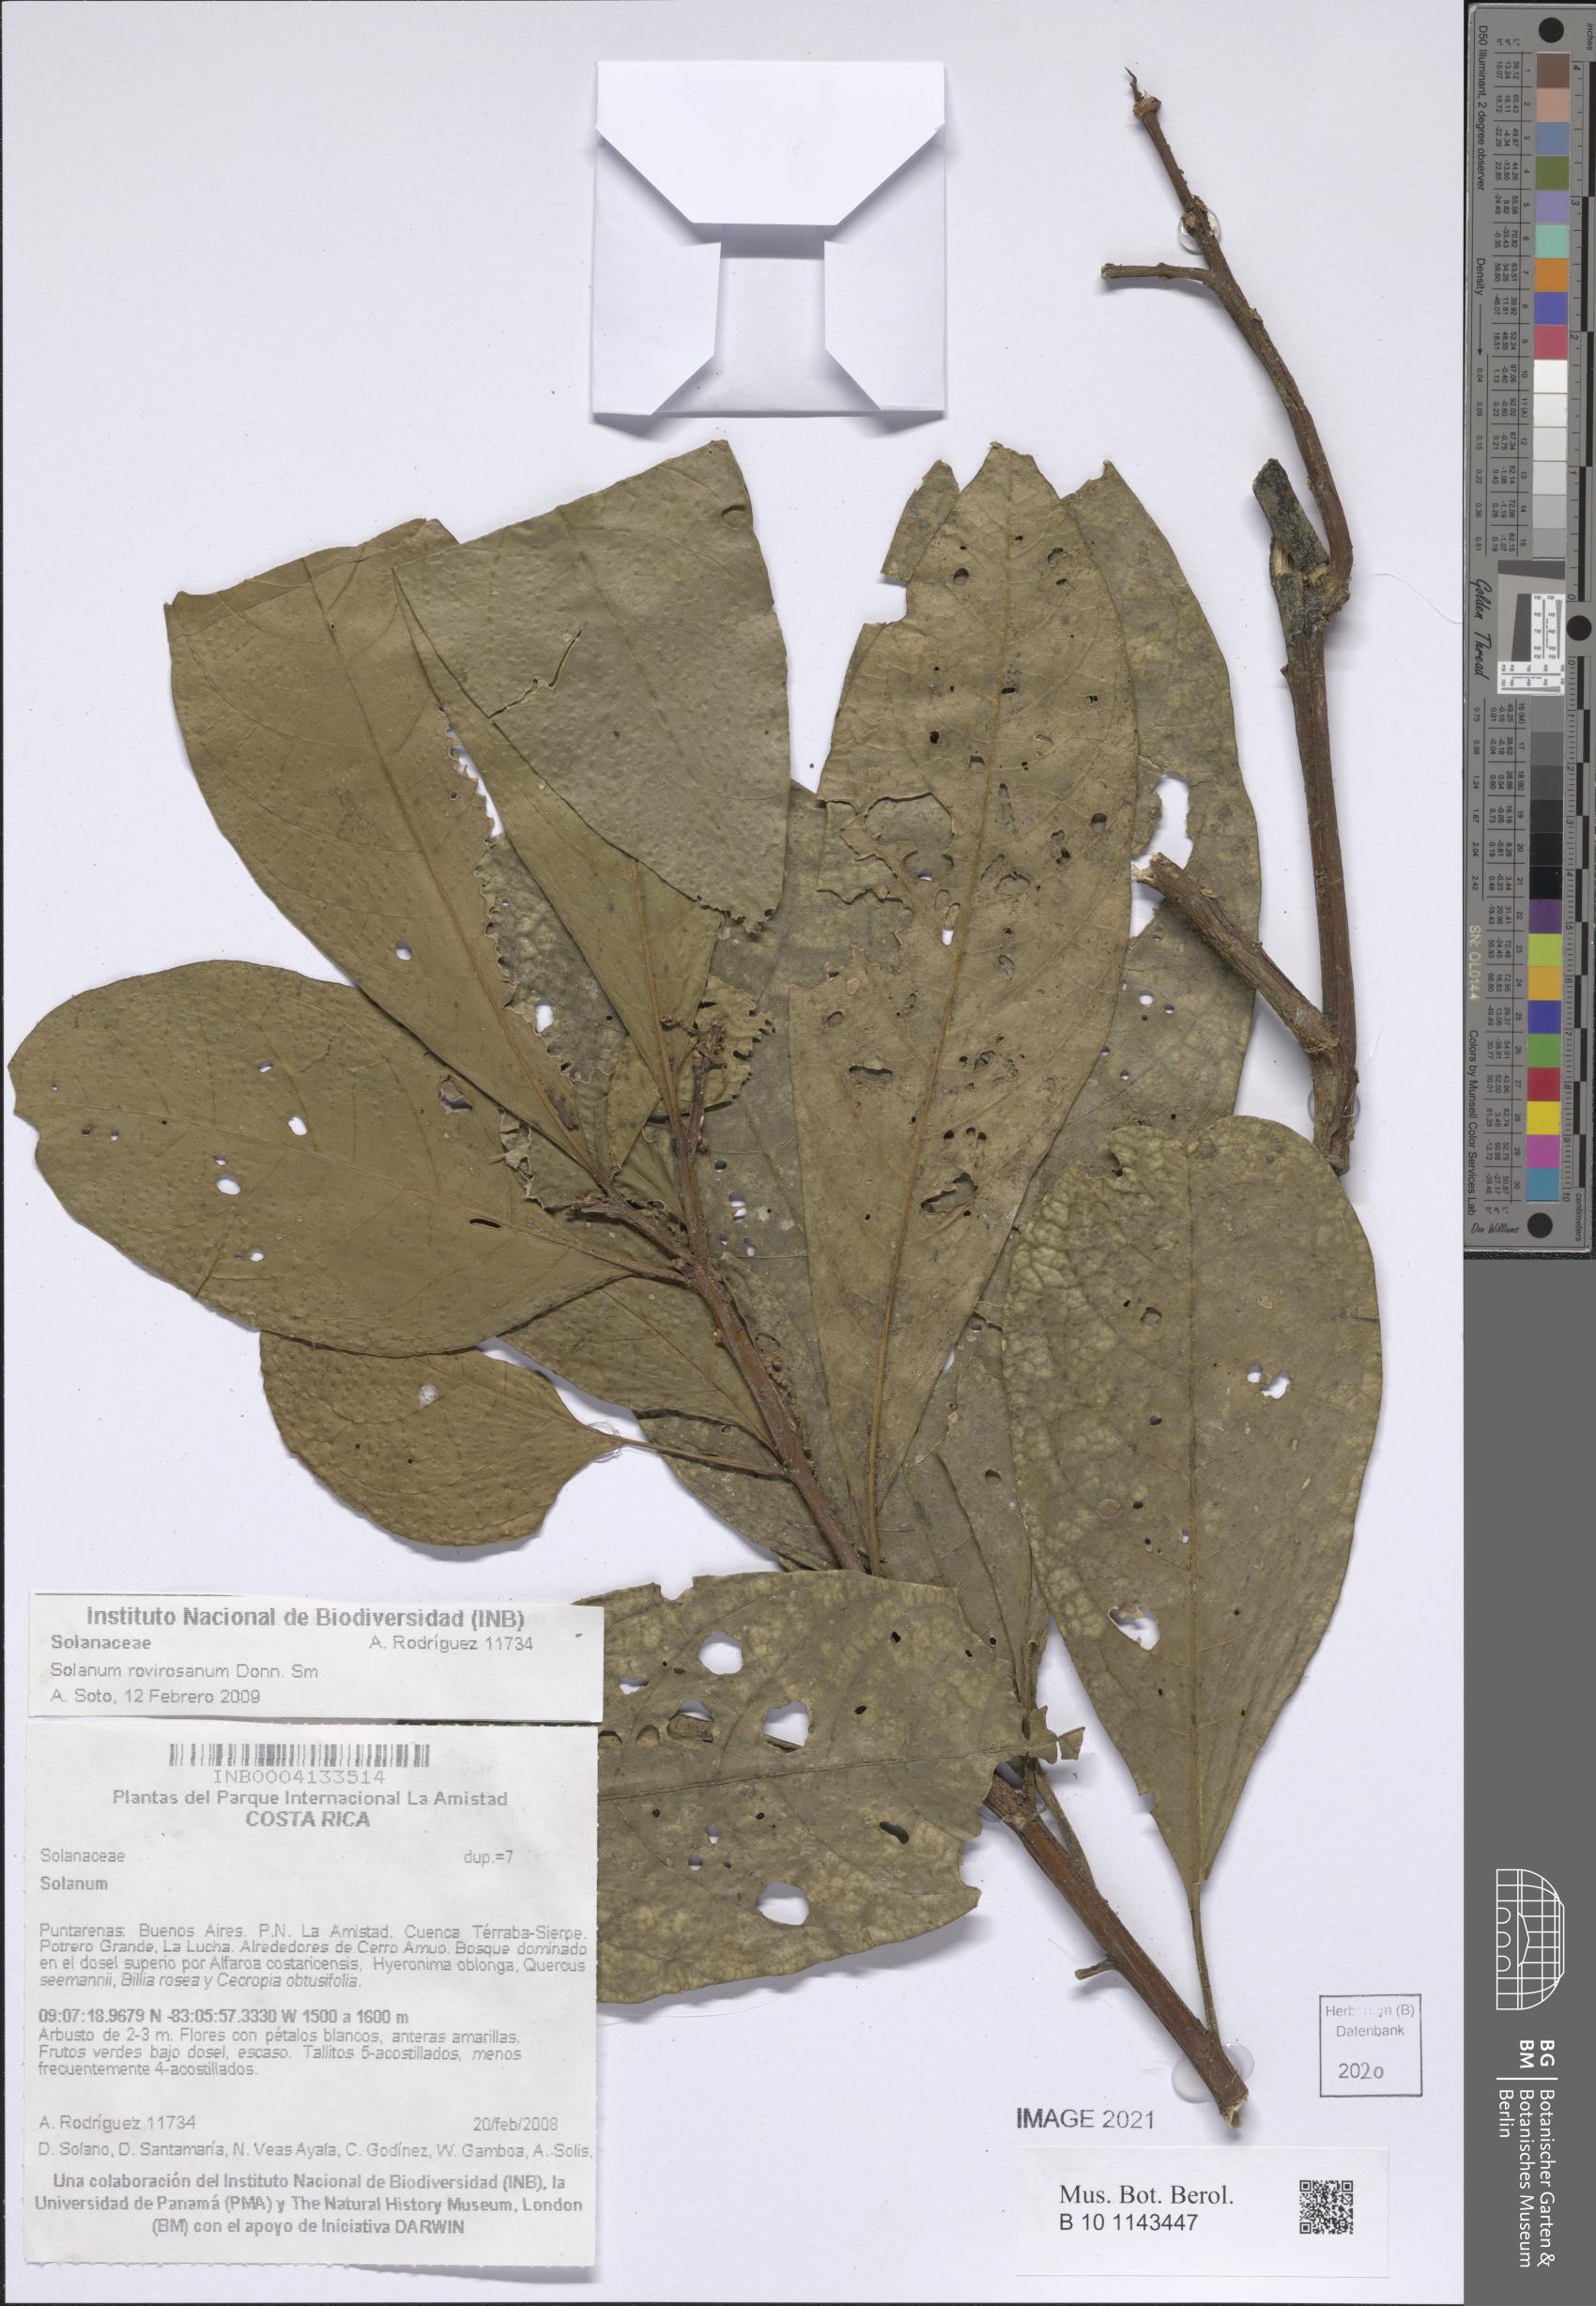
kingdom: Plantae
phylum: Tracheophyta
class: Magnoliopsida
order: Solanales
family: Solanaceae
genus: Solanum
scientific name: Solanum rovirosanum
